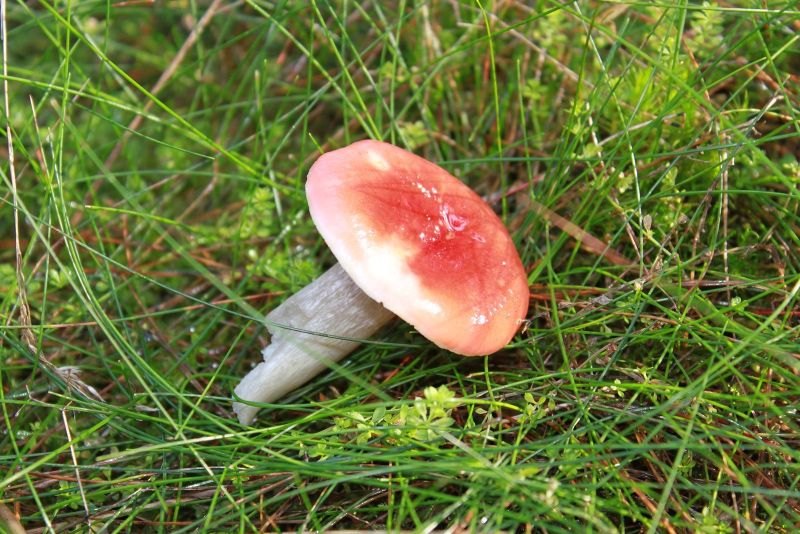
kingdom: Fungi
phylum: Basidiomycota
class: Agaricomycetes
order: Russulales
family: Russulaceae
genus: Russula
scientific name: Russula helodes
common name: sump-skørhat
